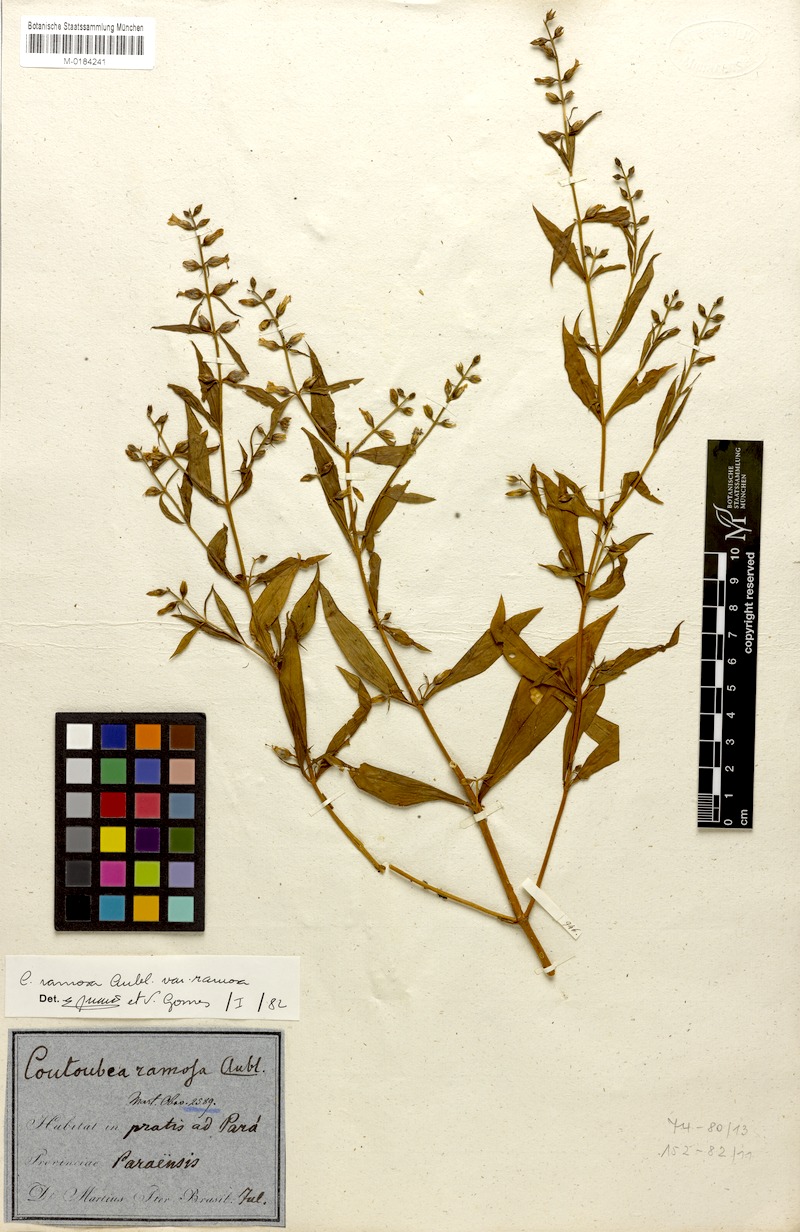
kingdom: Plantae
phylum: Tracheophyta
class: Magnoliopsida
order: Gentianales
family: Gentianaceae
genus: Coutoubea
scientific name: Coutoubea ramosa
